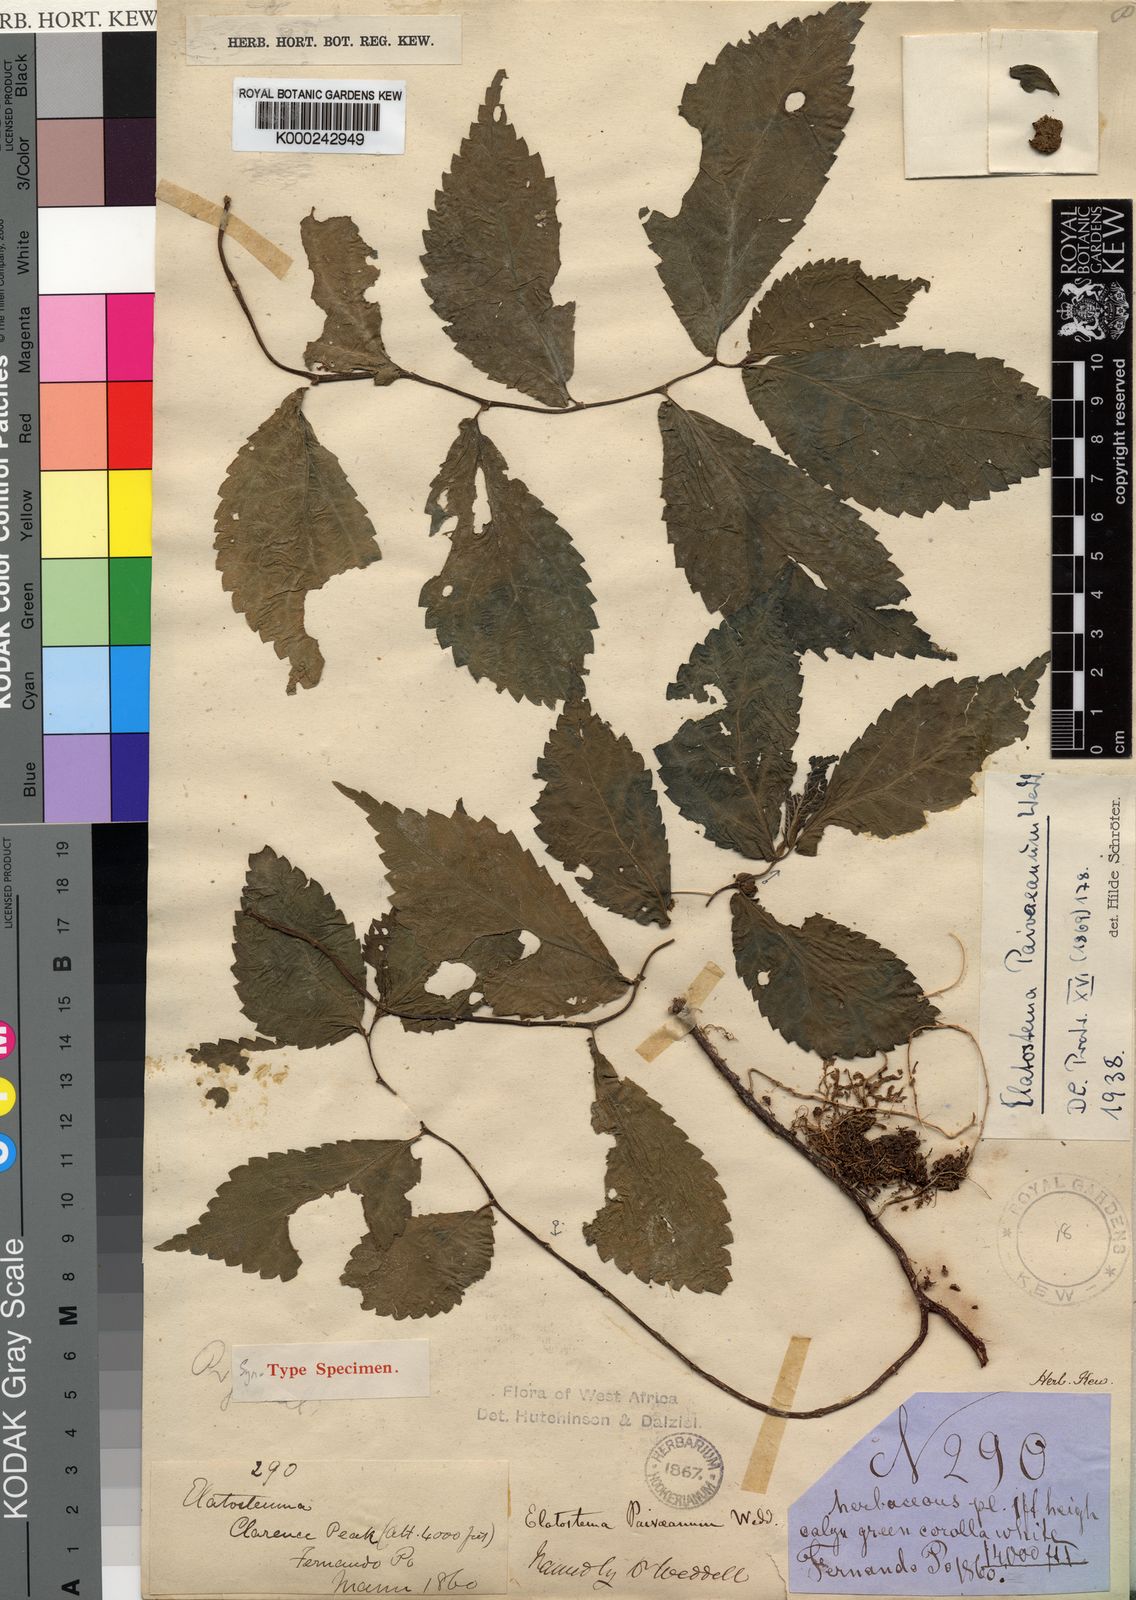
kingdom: Plantae
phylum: Tracheophyta
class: Magnoliopsida
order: Rosales
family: Urticaceae
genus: Elatostema
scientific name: Elatostema paivaeanum
